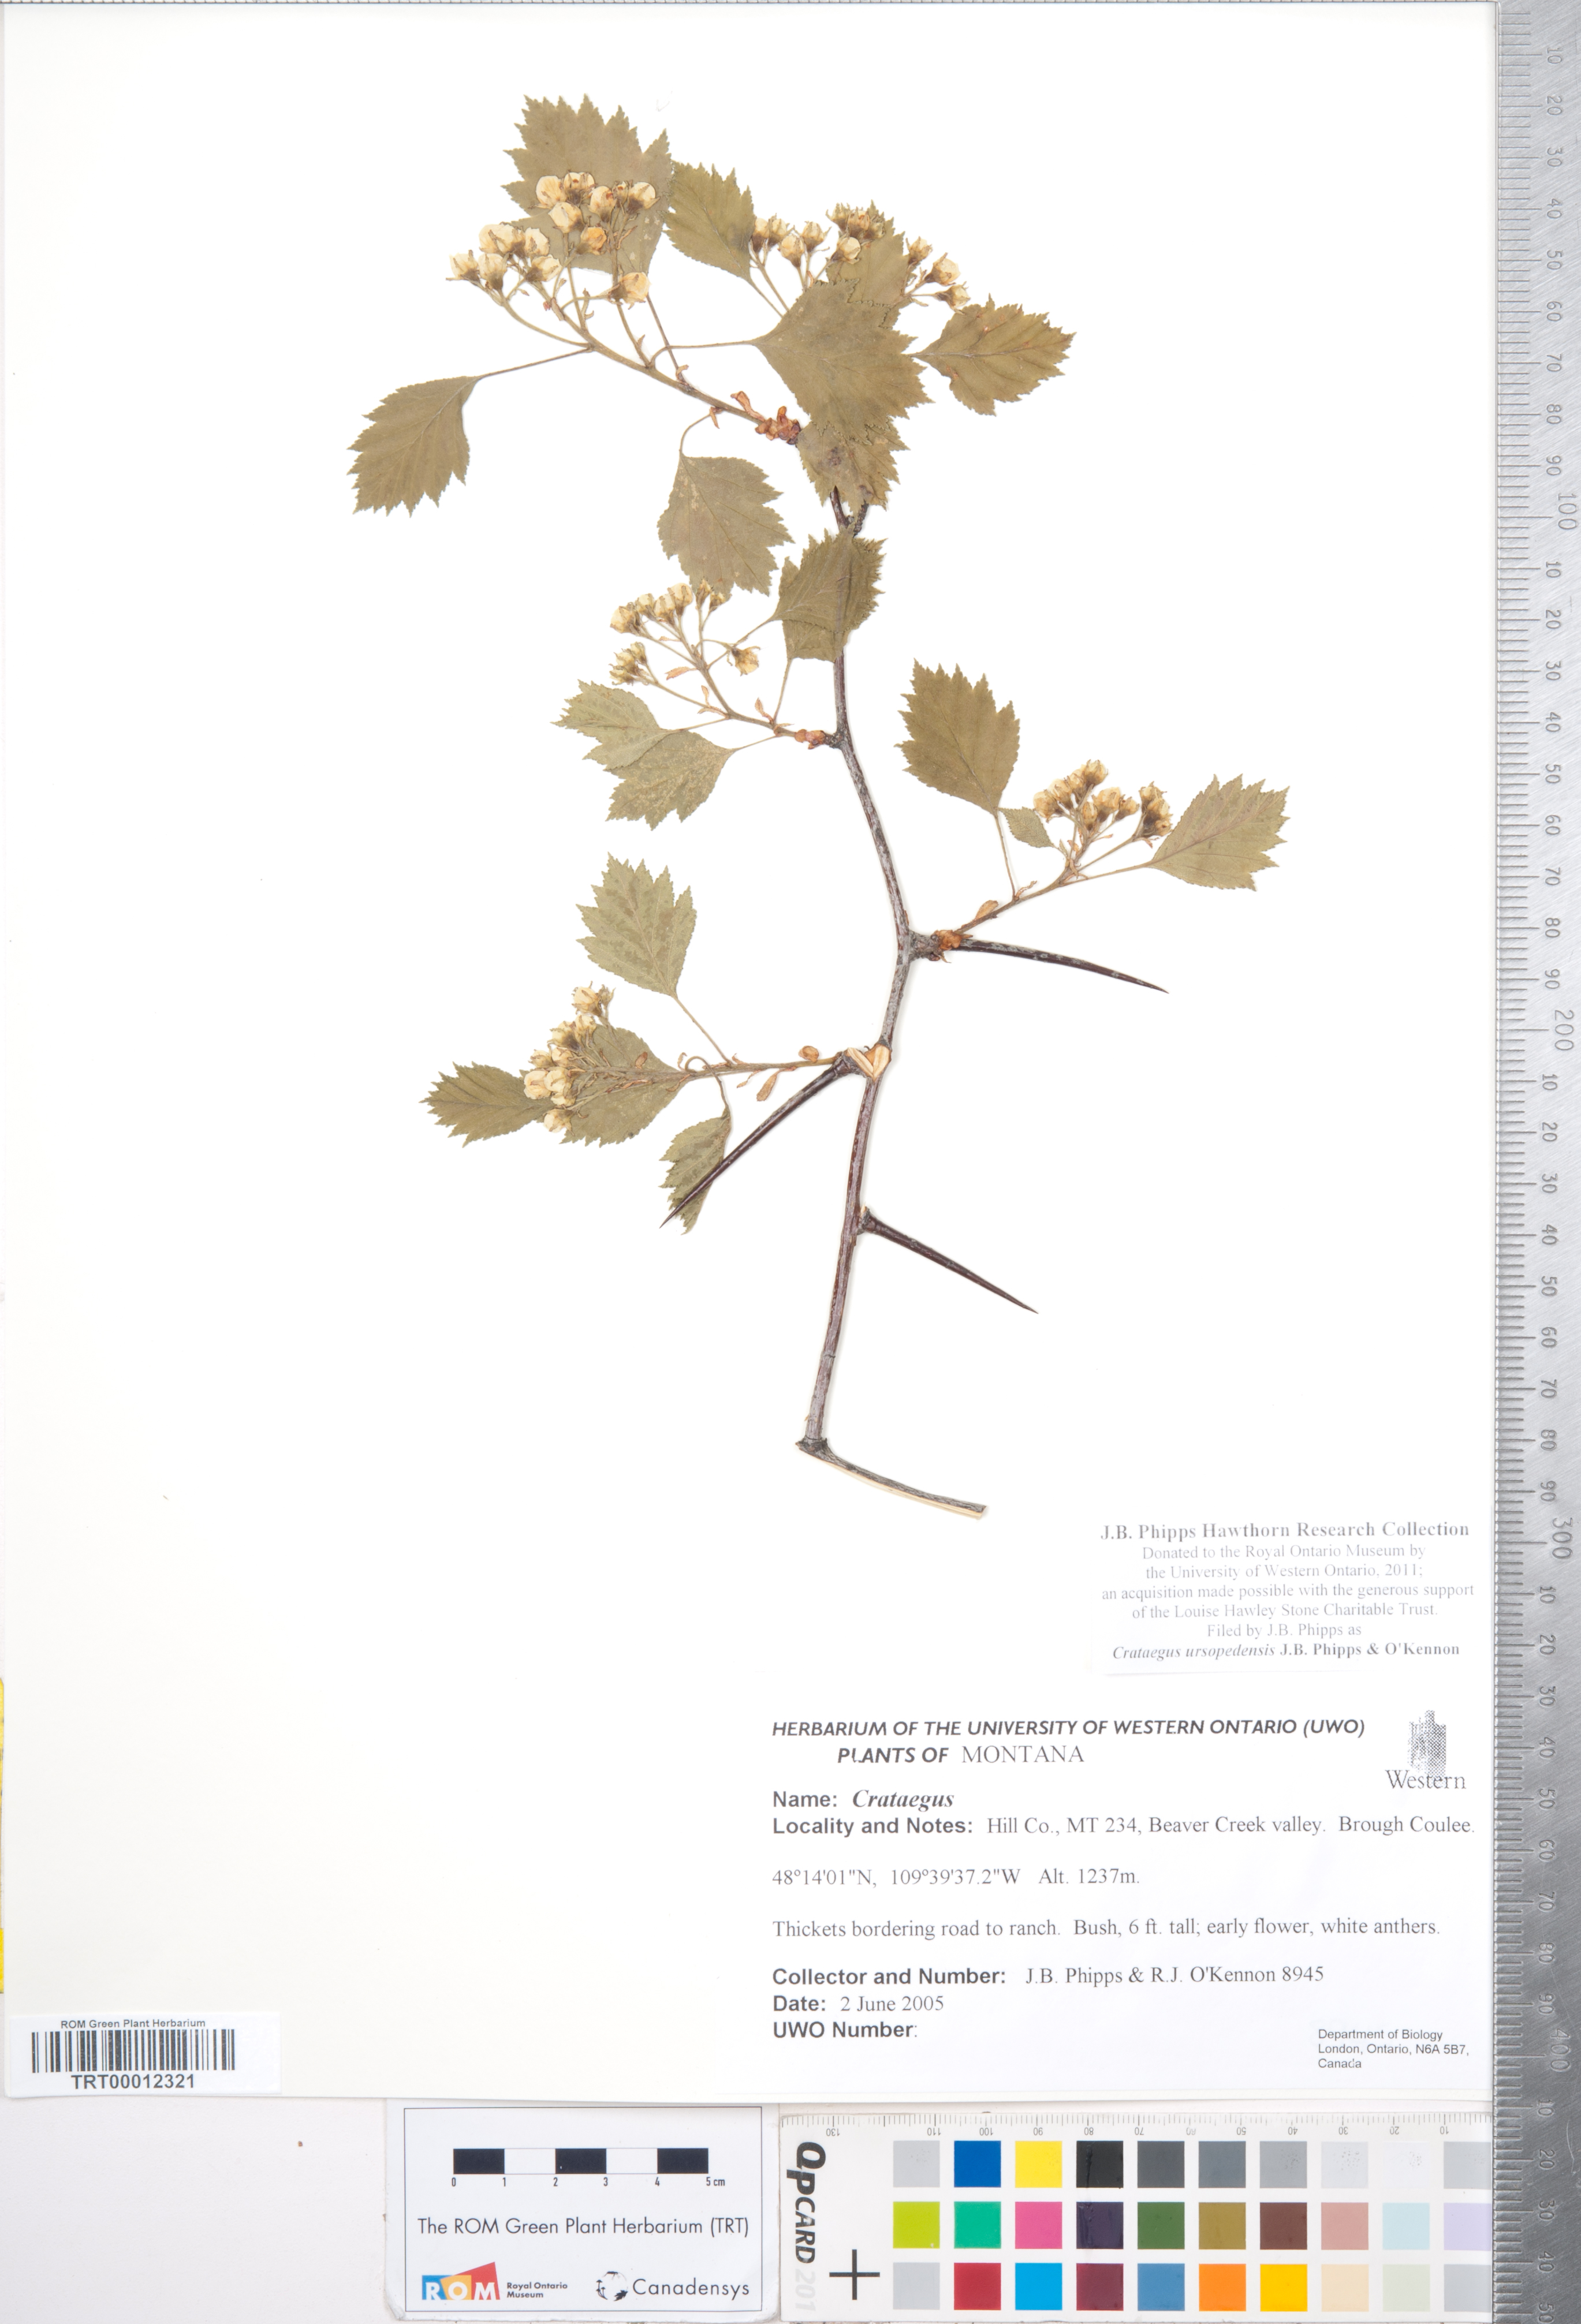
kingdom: Plantae
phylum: Tracheophyta
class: Magnoliopsida
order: Rosales
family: Rosaceae
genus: Crataegus
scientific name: Crataegus ursopedensis
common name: Bears paw hawthorn
